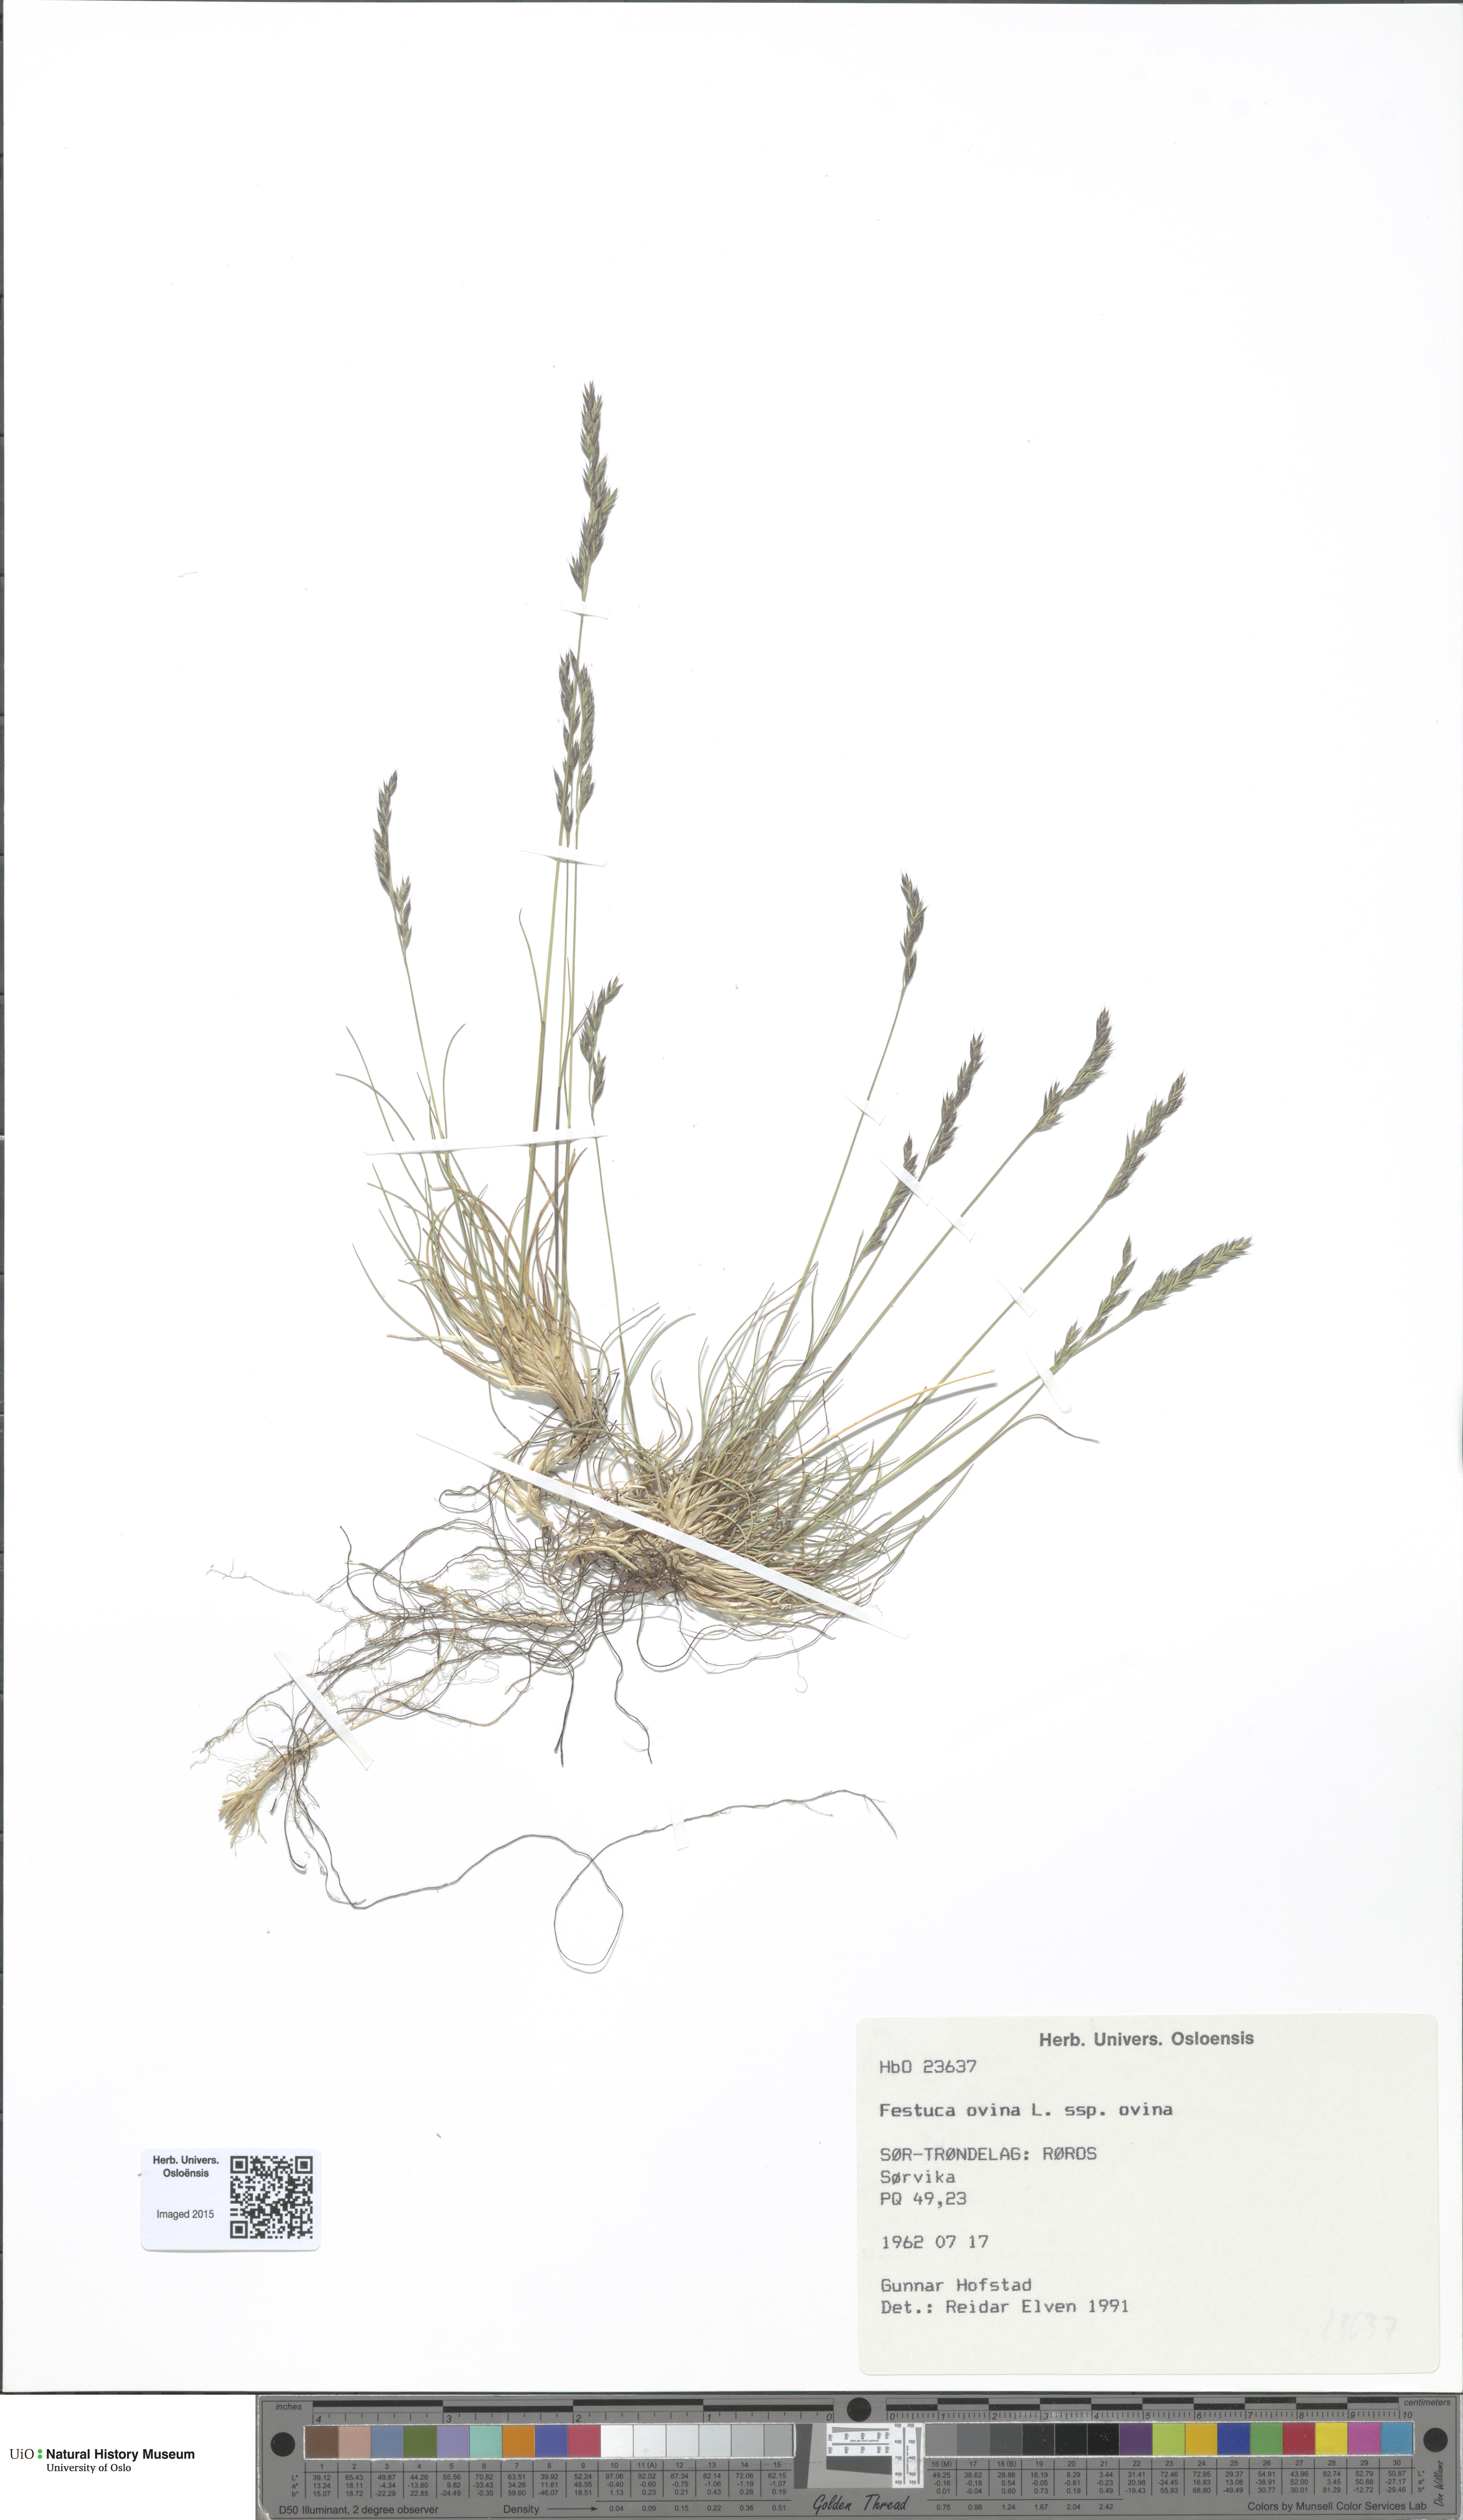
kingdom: Plantae
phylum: Tracheophyta
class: Liliopsida
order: Poales
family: Poaceae
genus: Festuca
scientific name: Festuca ovina
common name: Sheep fescue
